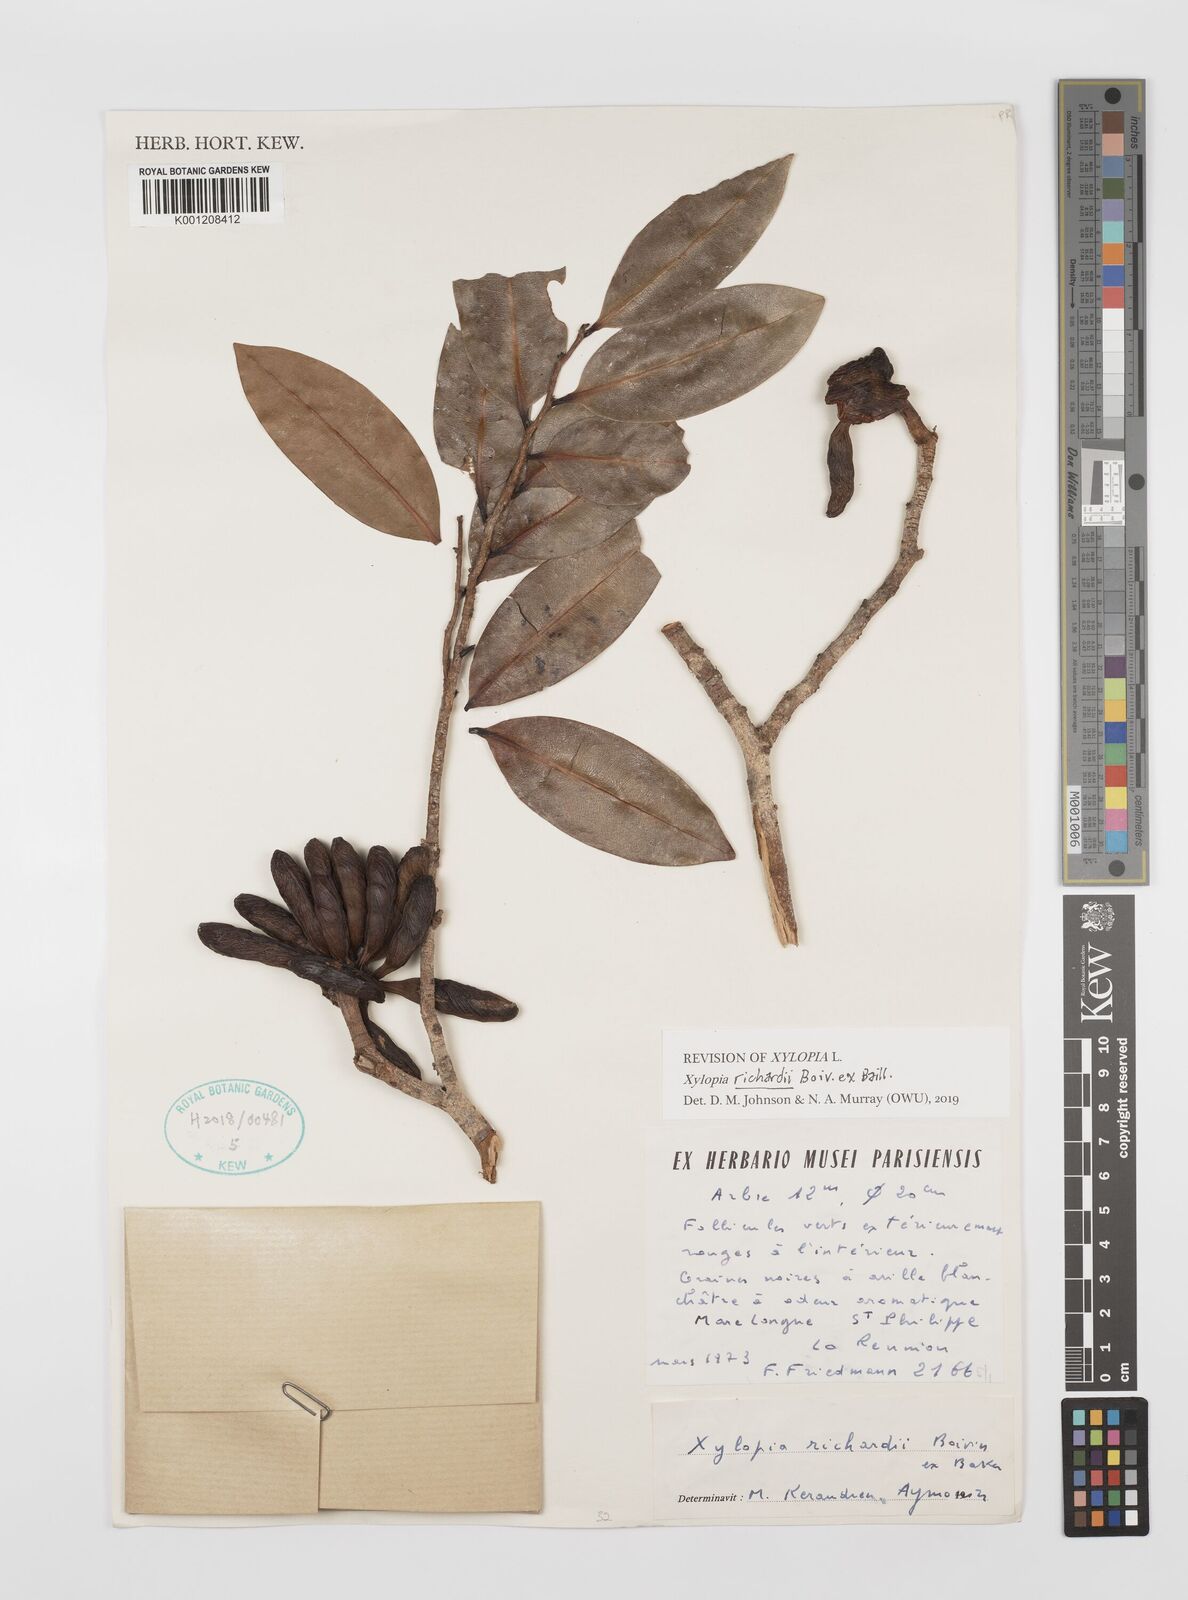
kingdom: Plantae
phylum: Tracheophyta
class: Magnoliopsida
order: Magnoliales
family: Annonaceae
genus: Xylopia
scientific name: Xylopia richardii
